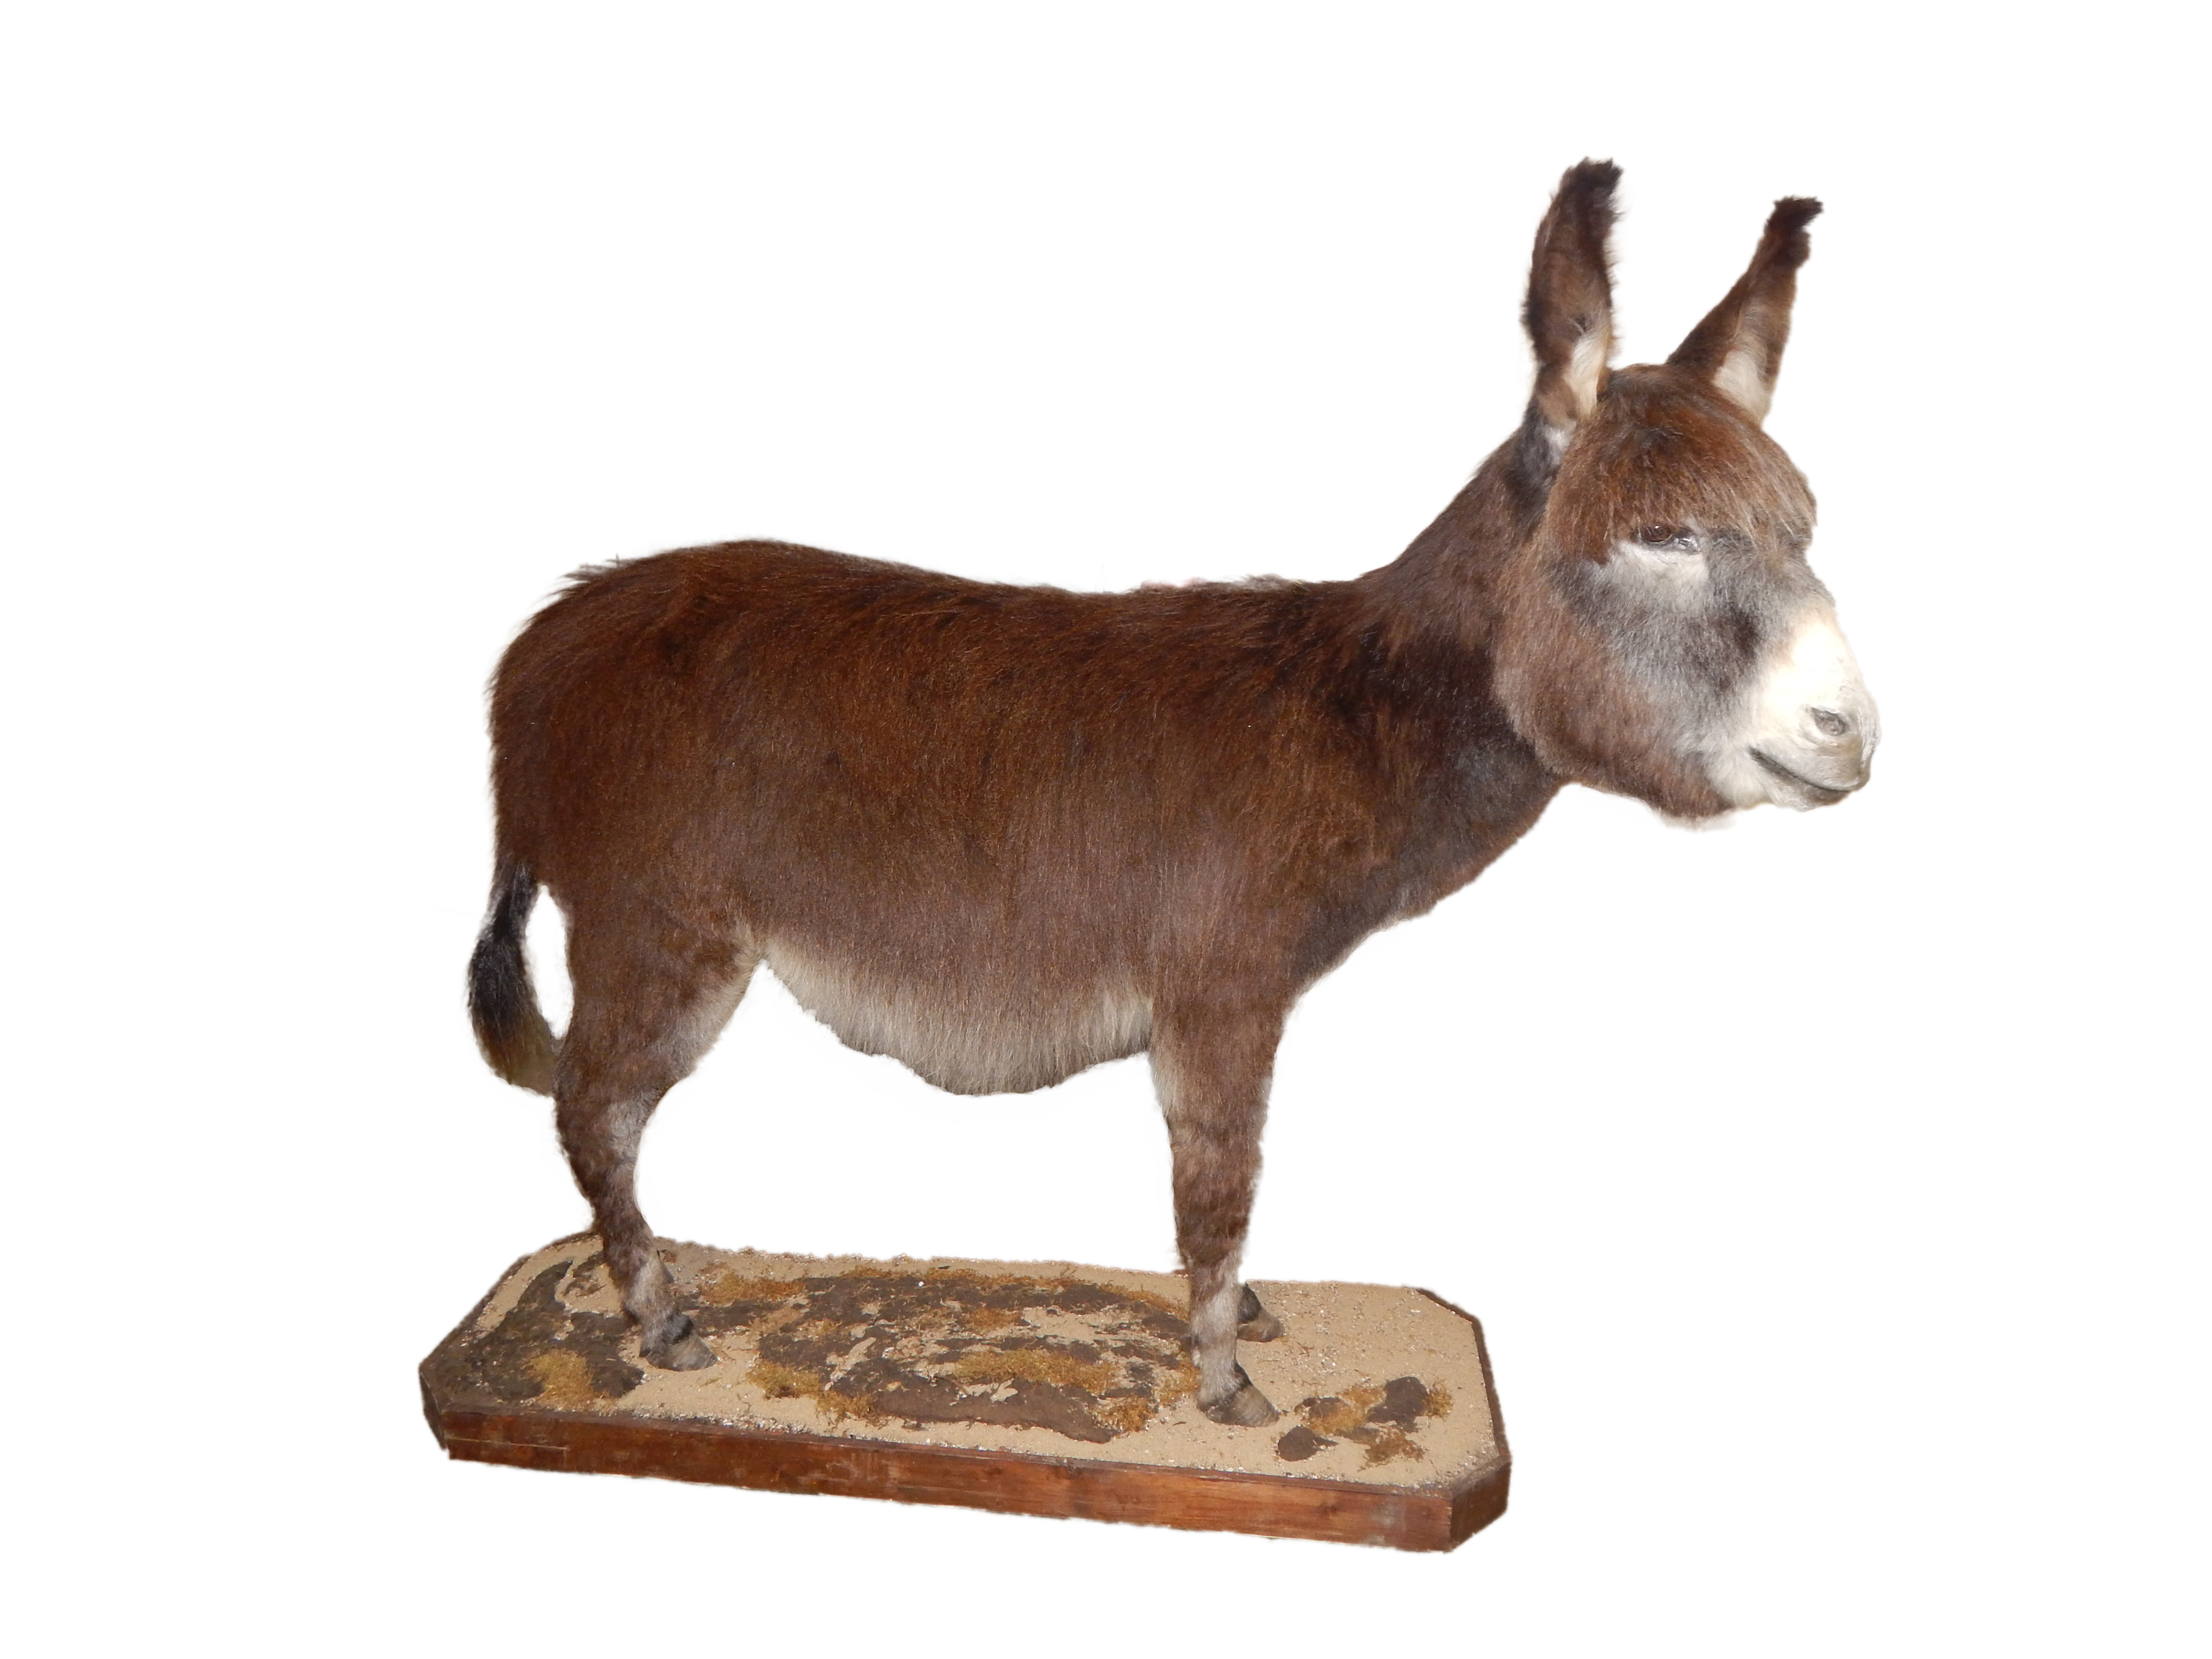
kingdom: Animalia
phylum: Chordata
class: Mammalia
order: Perissodactyla
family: Equidae
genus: Equus
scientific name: Equus asinus
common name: Ass
